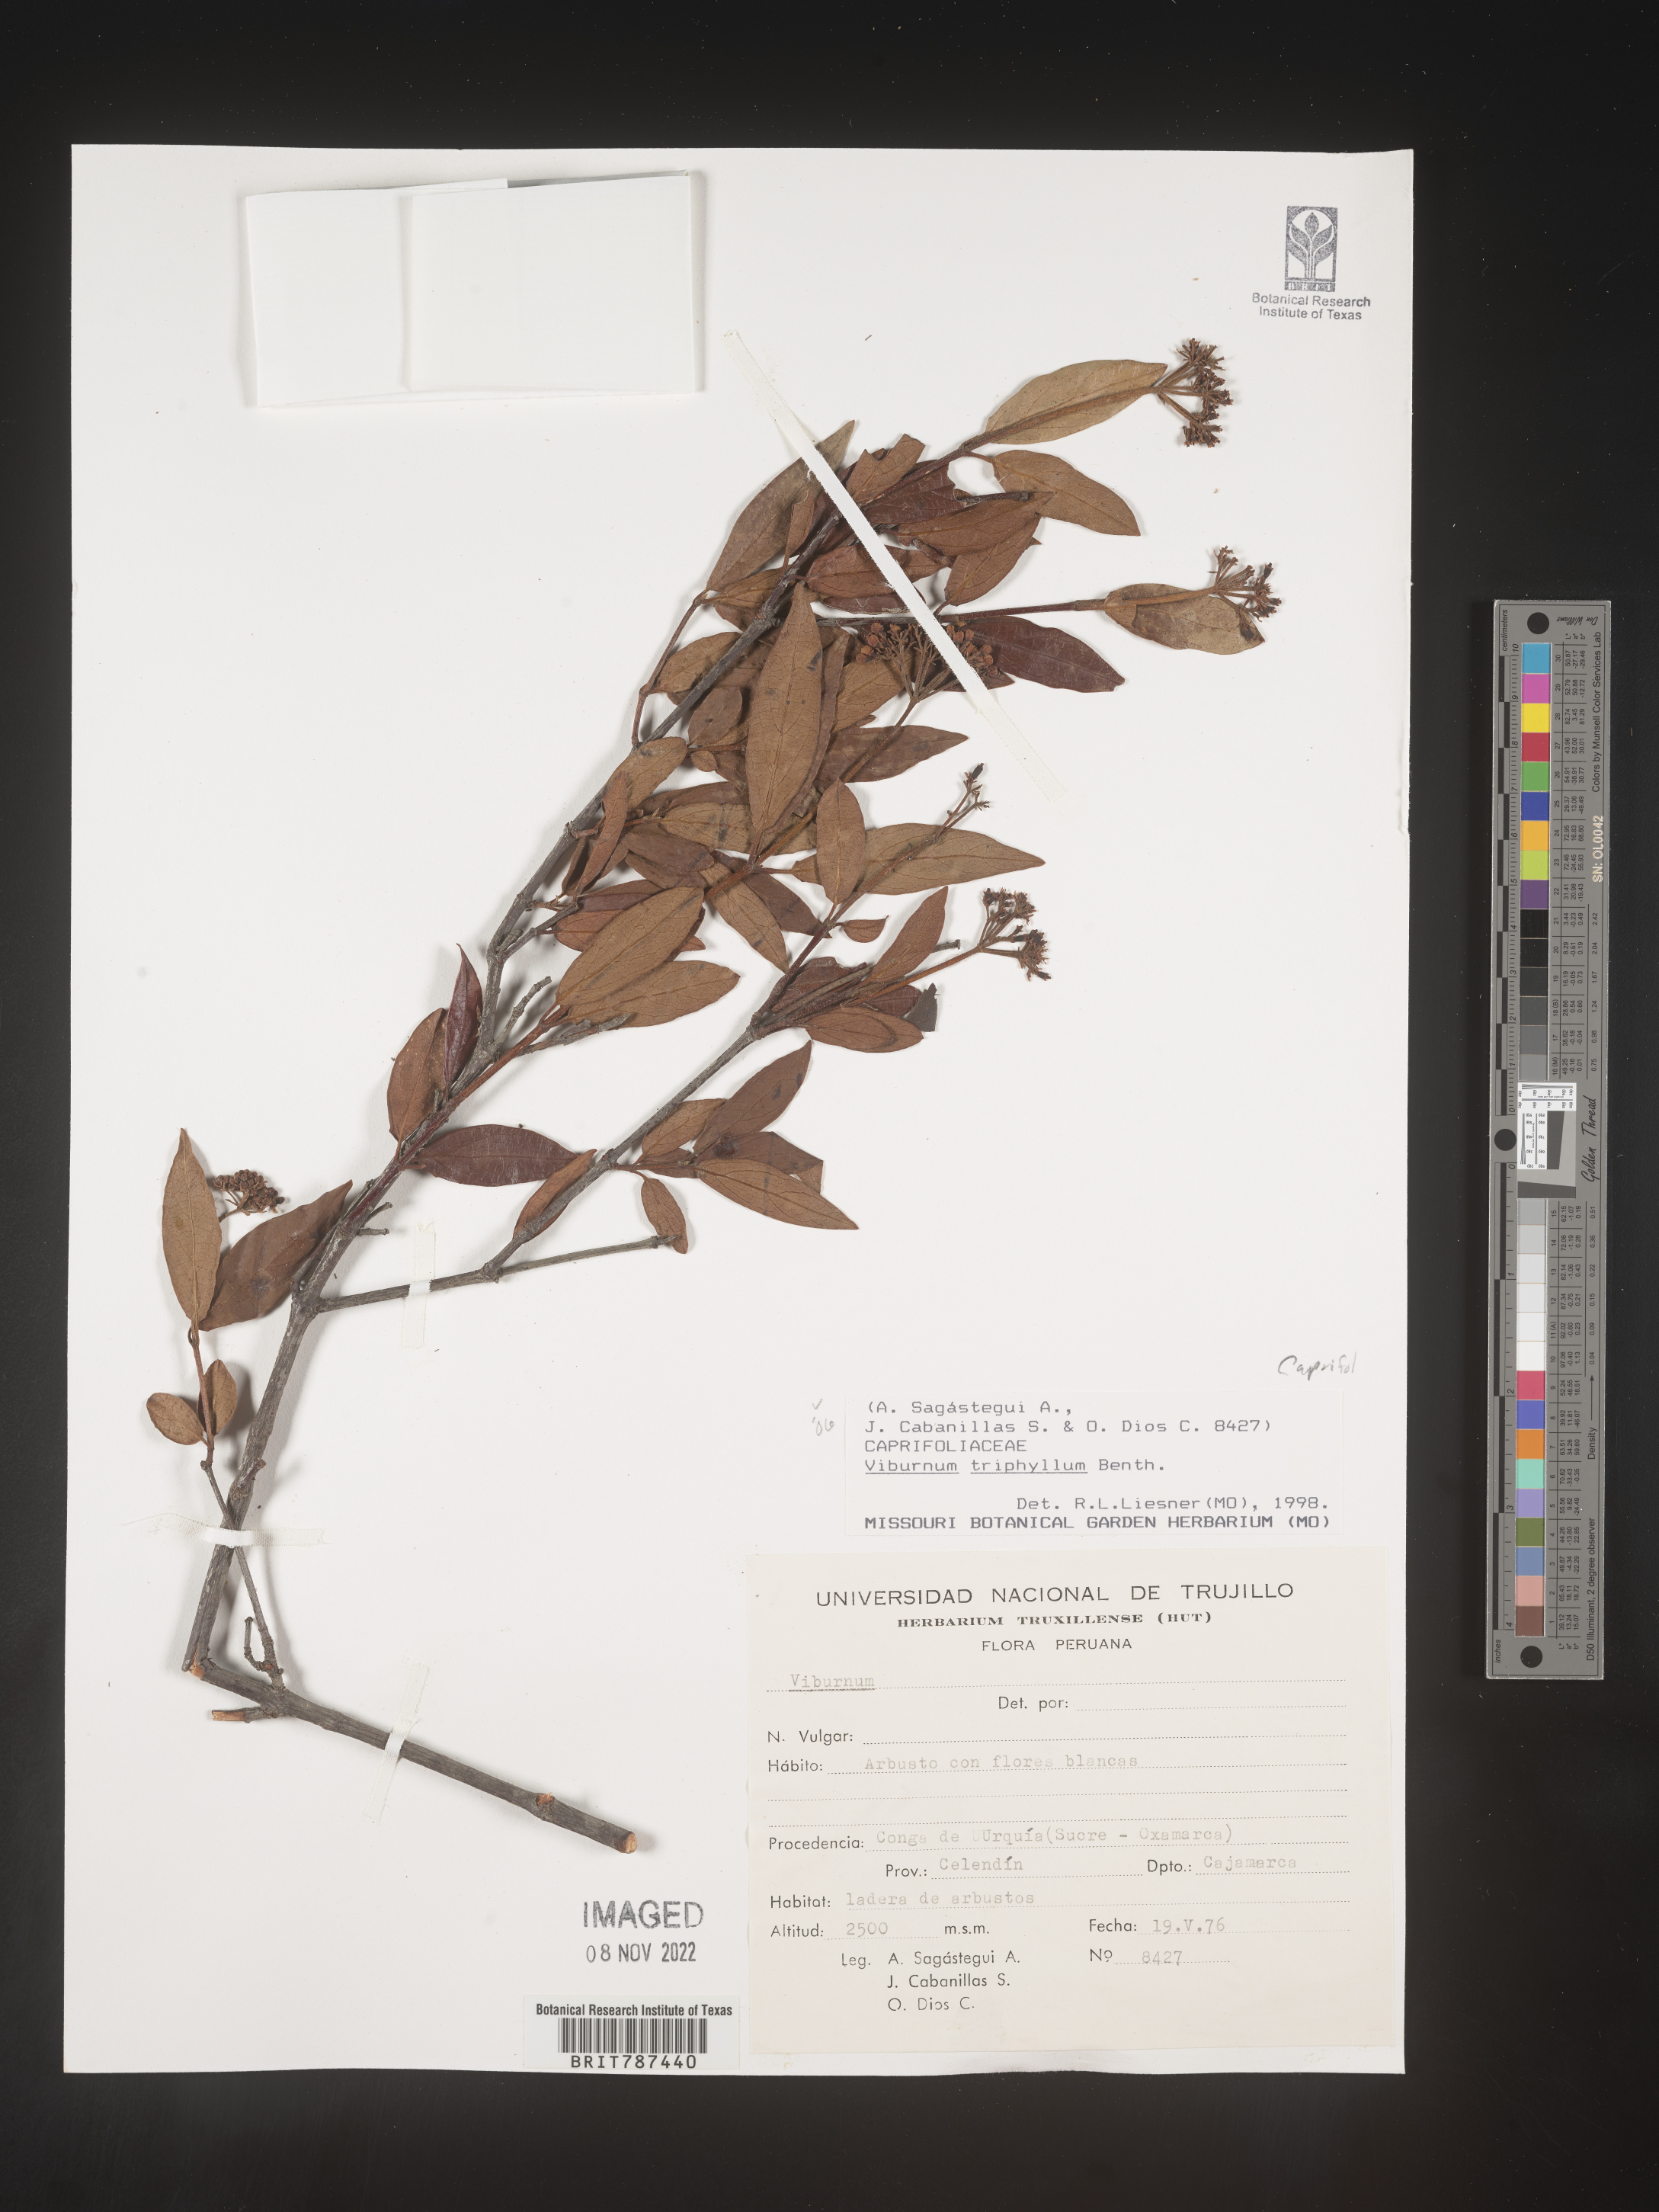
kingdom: Plantae
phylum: Tracheophyta
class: Magnoliopsida
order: Dipsacales
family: Viburnaceae
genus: Viburnum
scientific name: Viburnum
